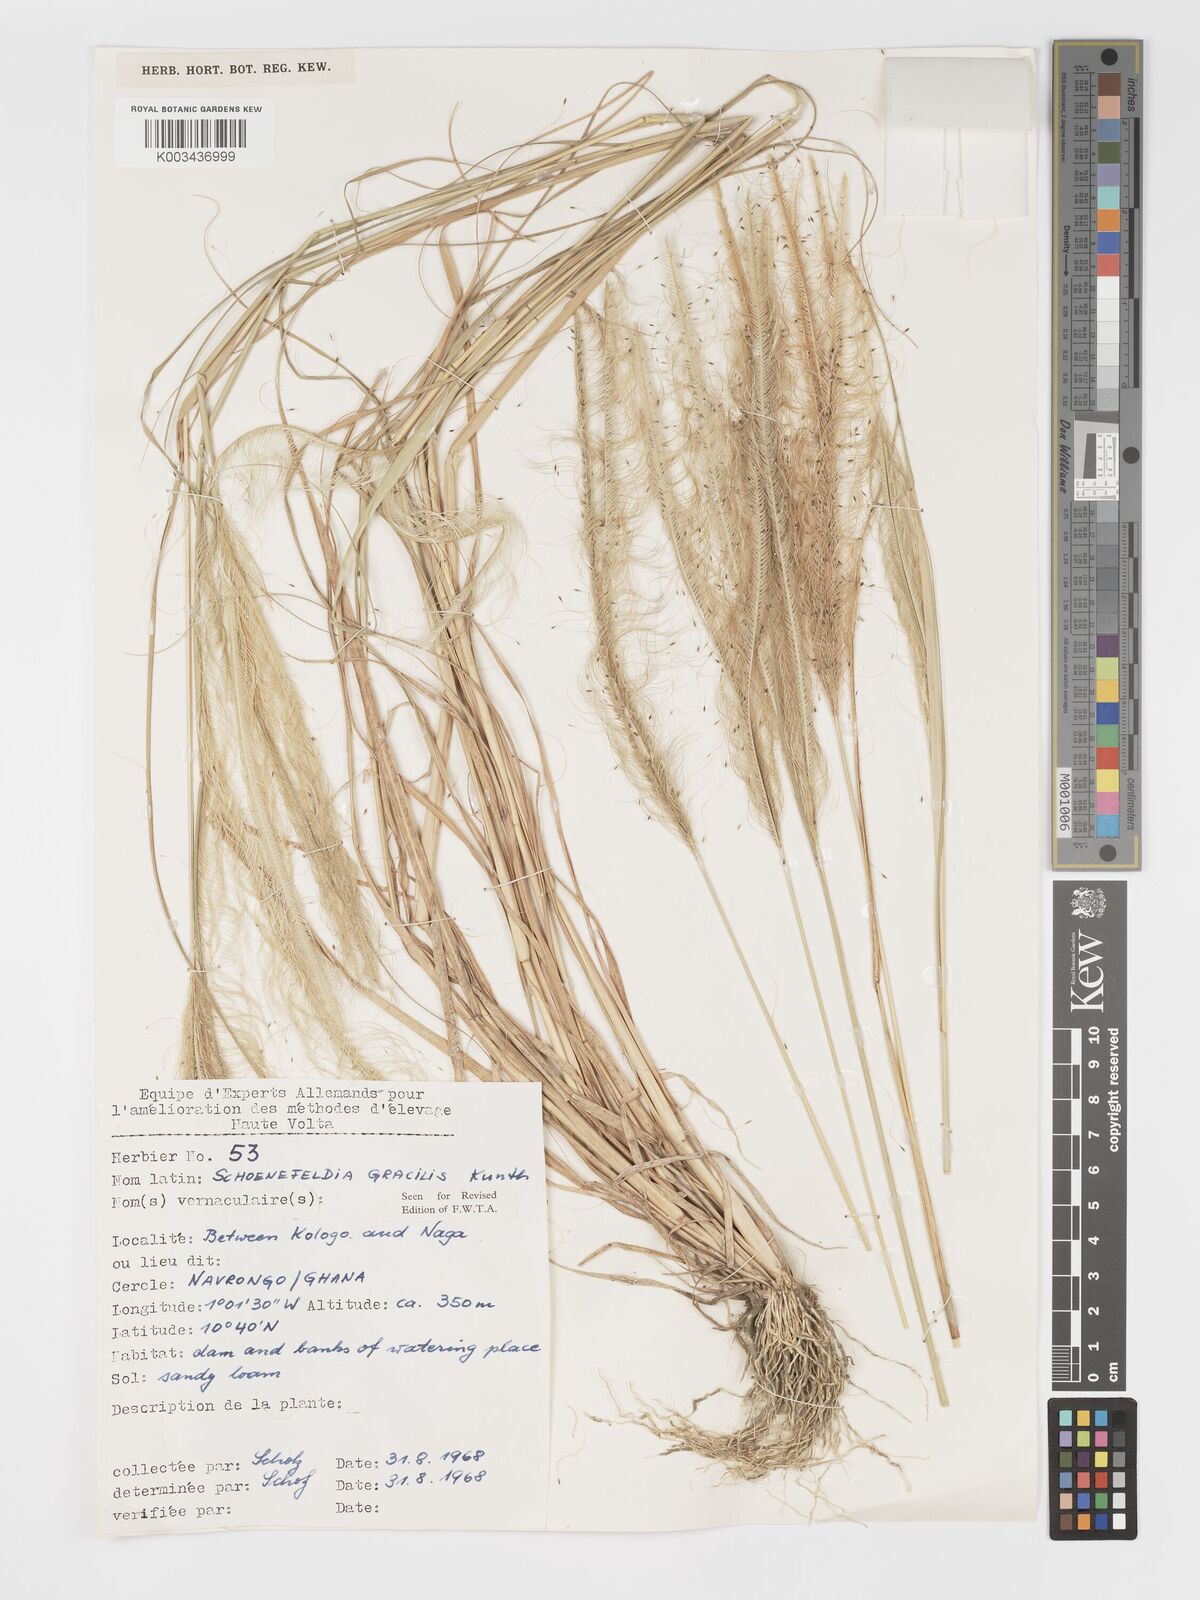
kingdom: Plantae
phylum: Tracheophyta
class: Liliopsida
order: Poales
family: Poaceae
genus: Schoenefeldia
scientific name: Schoenefeldia gracilis
